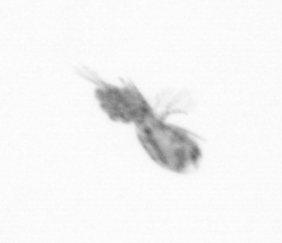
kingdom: Animalia
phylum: Arthropoda
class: Copepoda
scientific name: Copepoda
